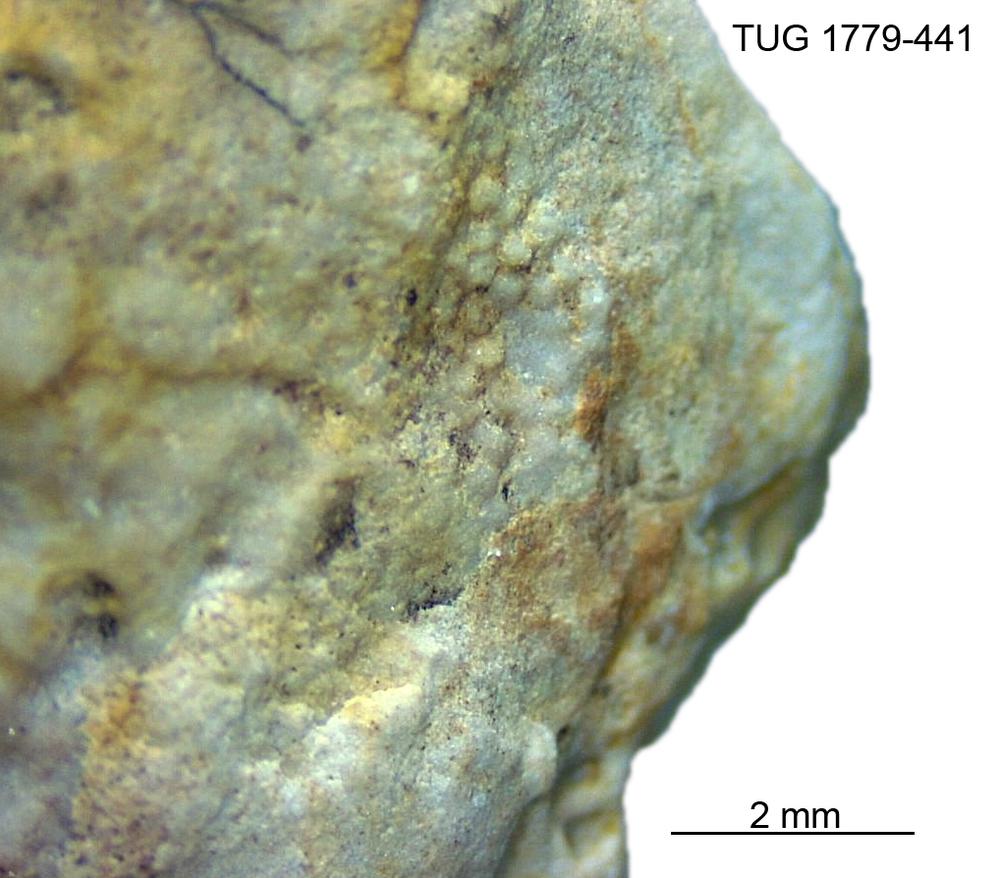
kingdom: Animalia
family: Coprulidae
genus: Coprulus
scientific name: Coprulus
